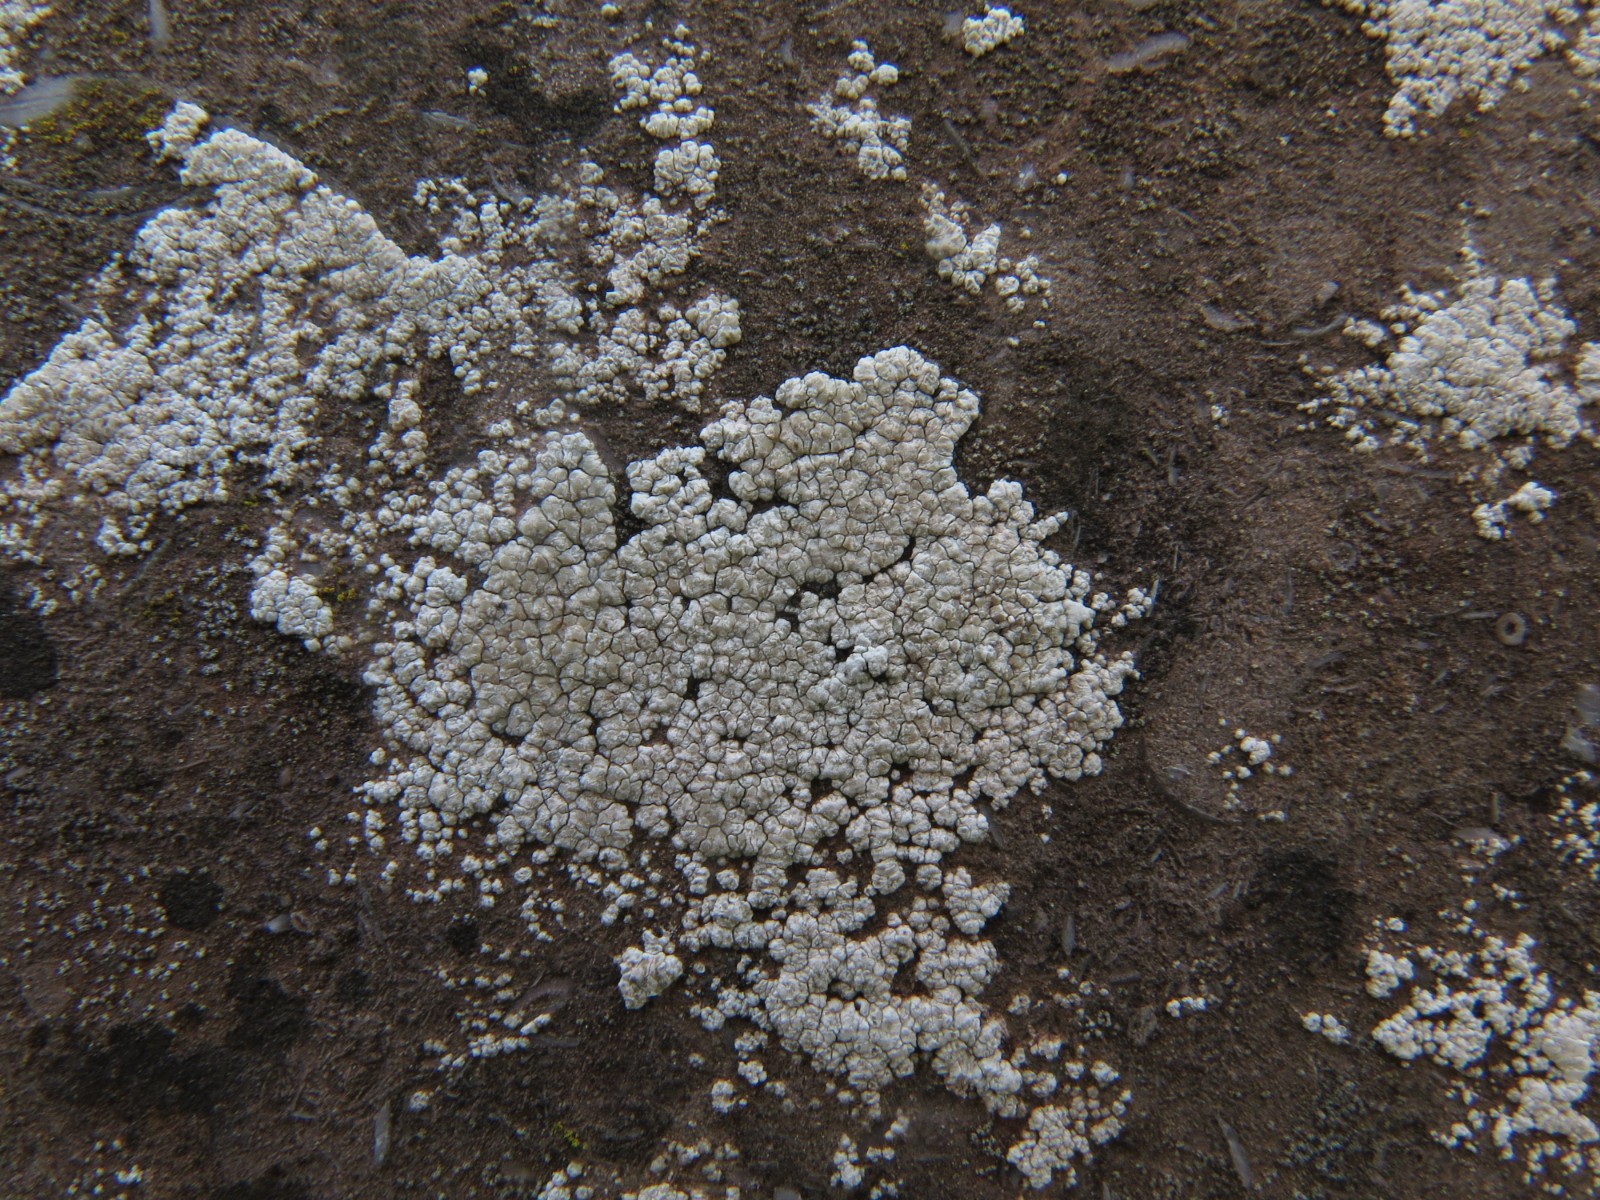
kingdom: Fungi
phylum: Ascomycota
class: Lecanoromycetes
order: Lecanorales
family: Lecanoraceae
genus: Polyozosia
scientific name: Polyozosia albescens
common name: cement-kantskivelav
